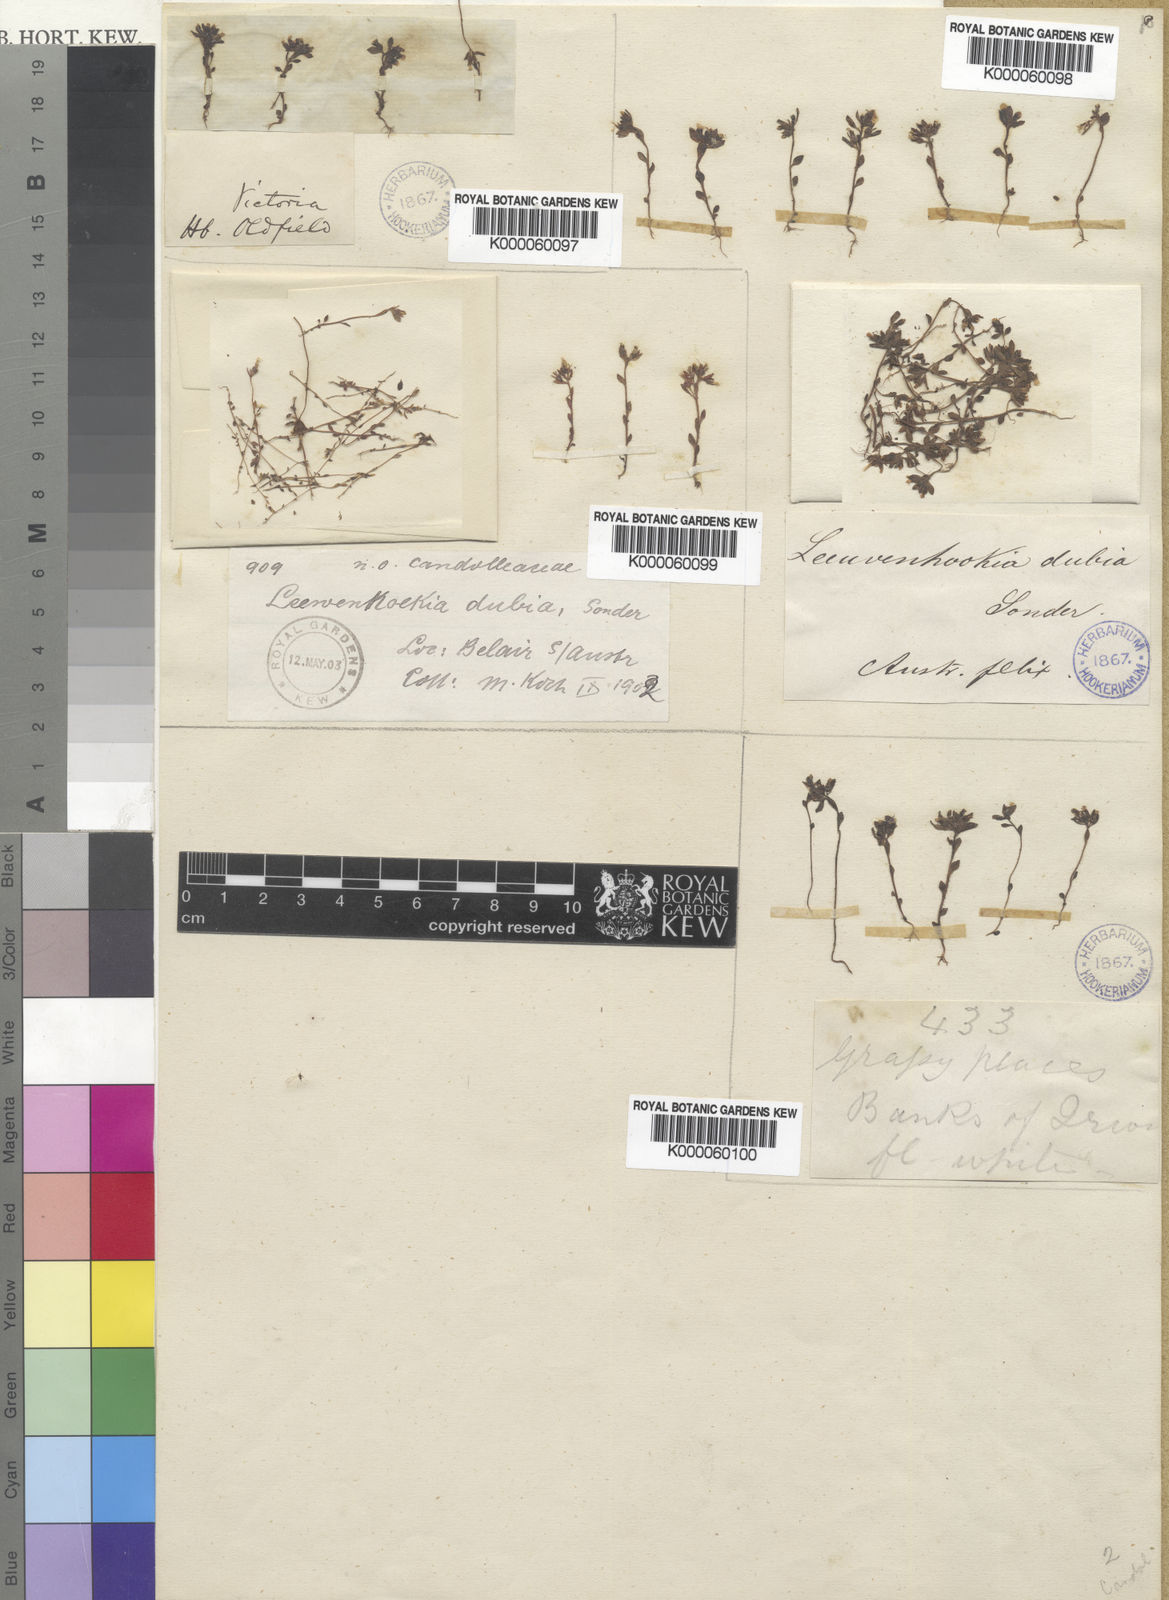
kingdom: Plantae
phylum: Tracheophyta
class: Magnoliopsida
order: Asterales
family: Stylidiaceae
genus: Levenhookia
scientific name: Levenhookia dubia
